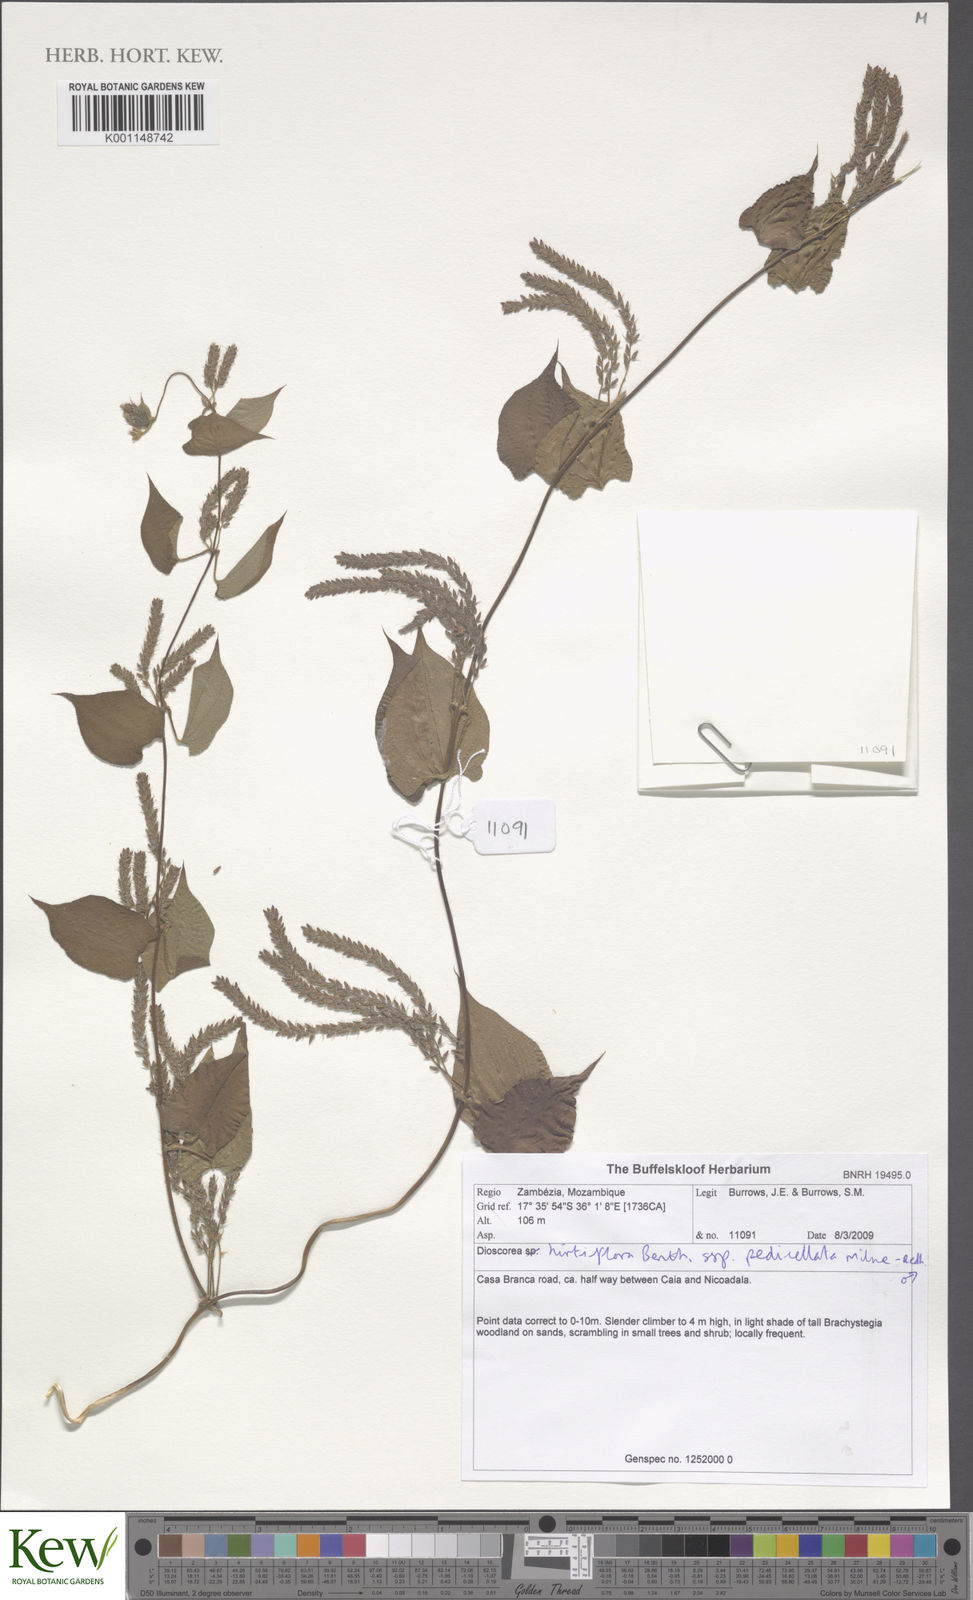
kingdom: Plantae
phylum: Tracheophyta
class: Liliopsida
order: Dioscoreales
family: Dioscoreaceae
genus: Dioscorea
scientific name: Dioscorea hirtiflora
